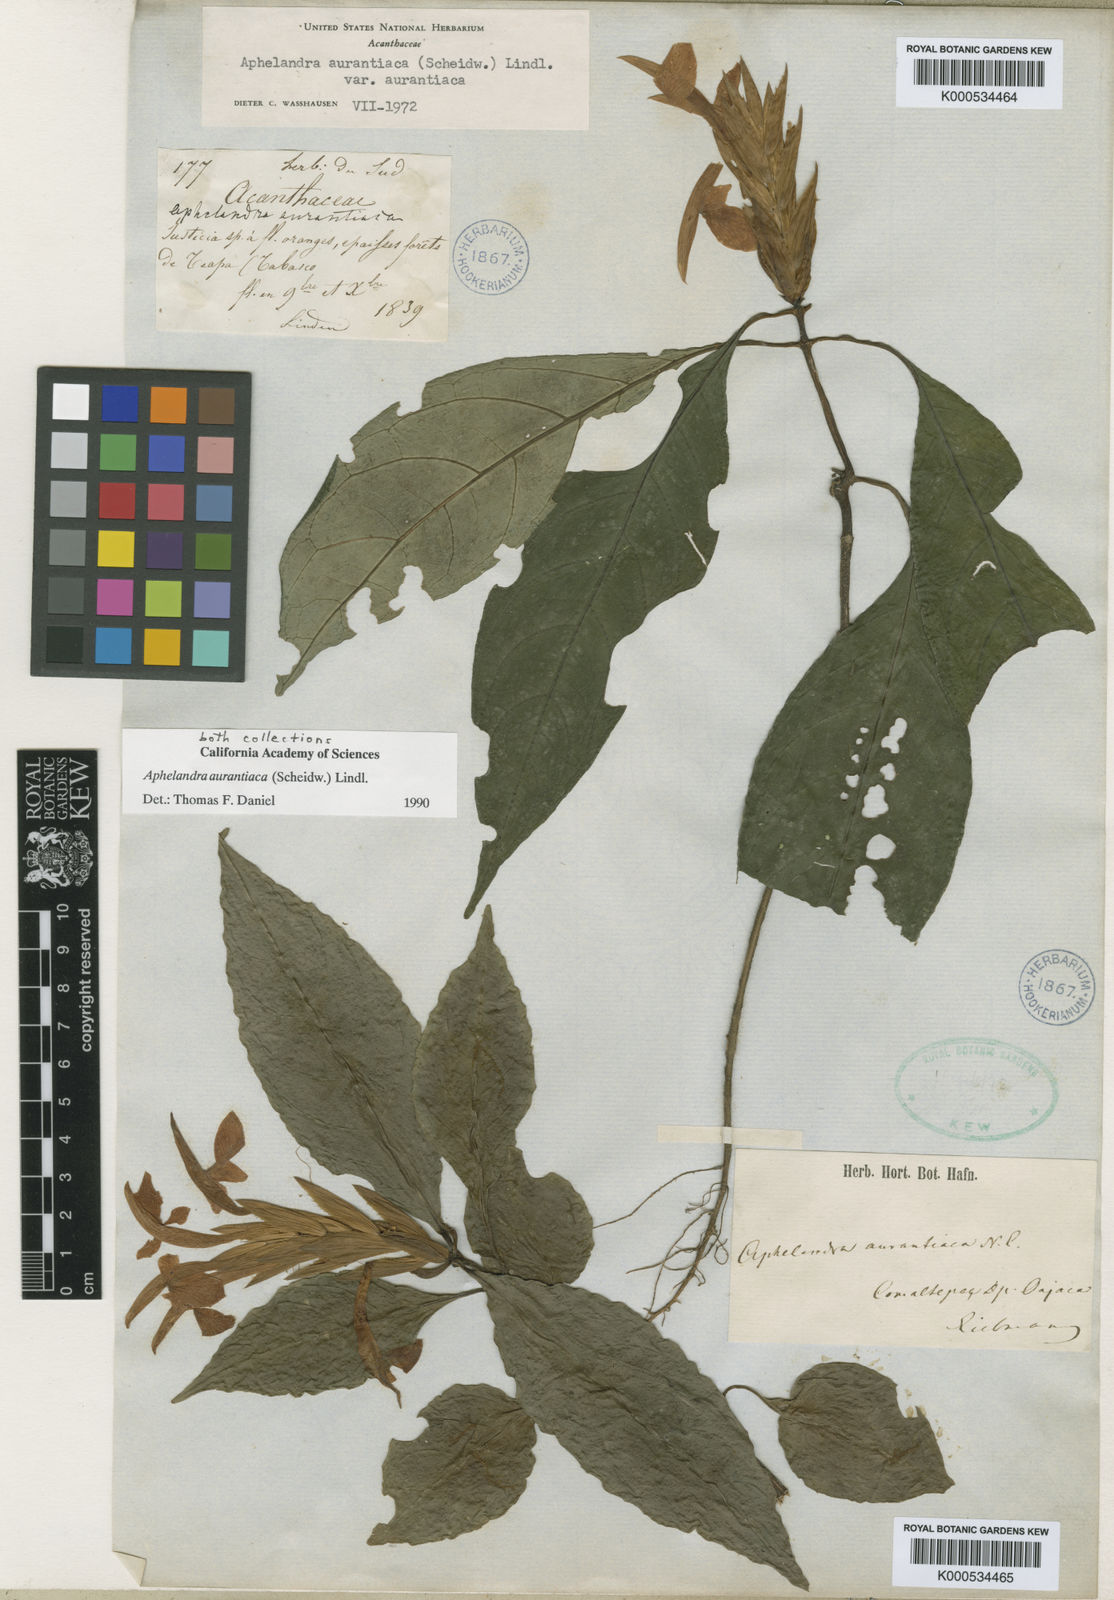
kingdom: Plantae
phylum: Tracheophyta
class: Magnoliopsida
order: Lamiales
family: Acanthaceae
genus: Aphelandra
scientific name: Aphelandra aurantiaca
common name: Fiery spike
